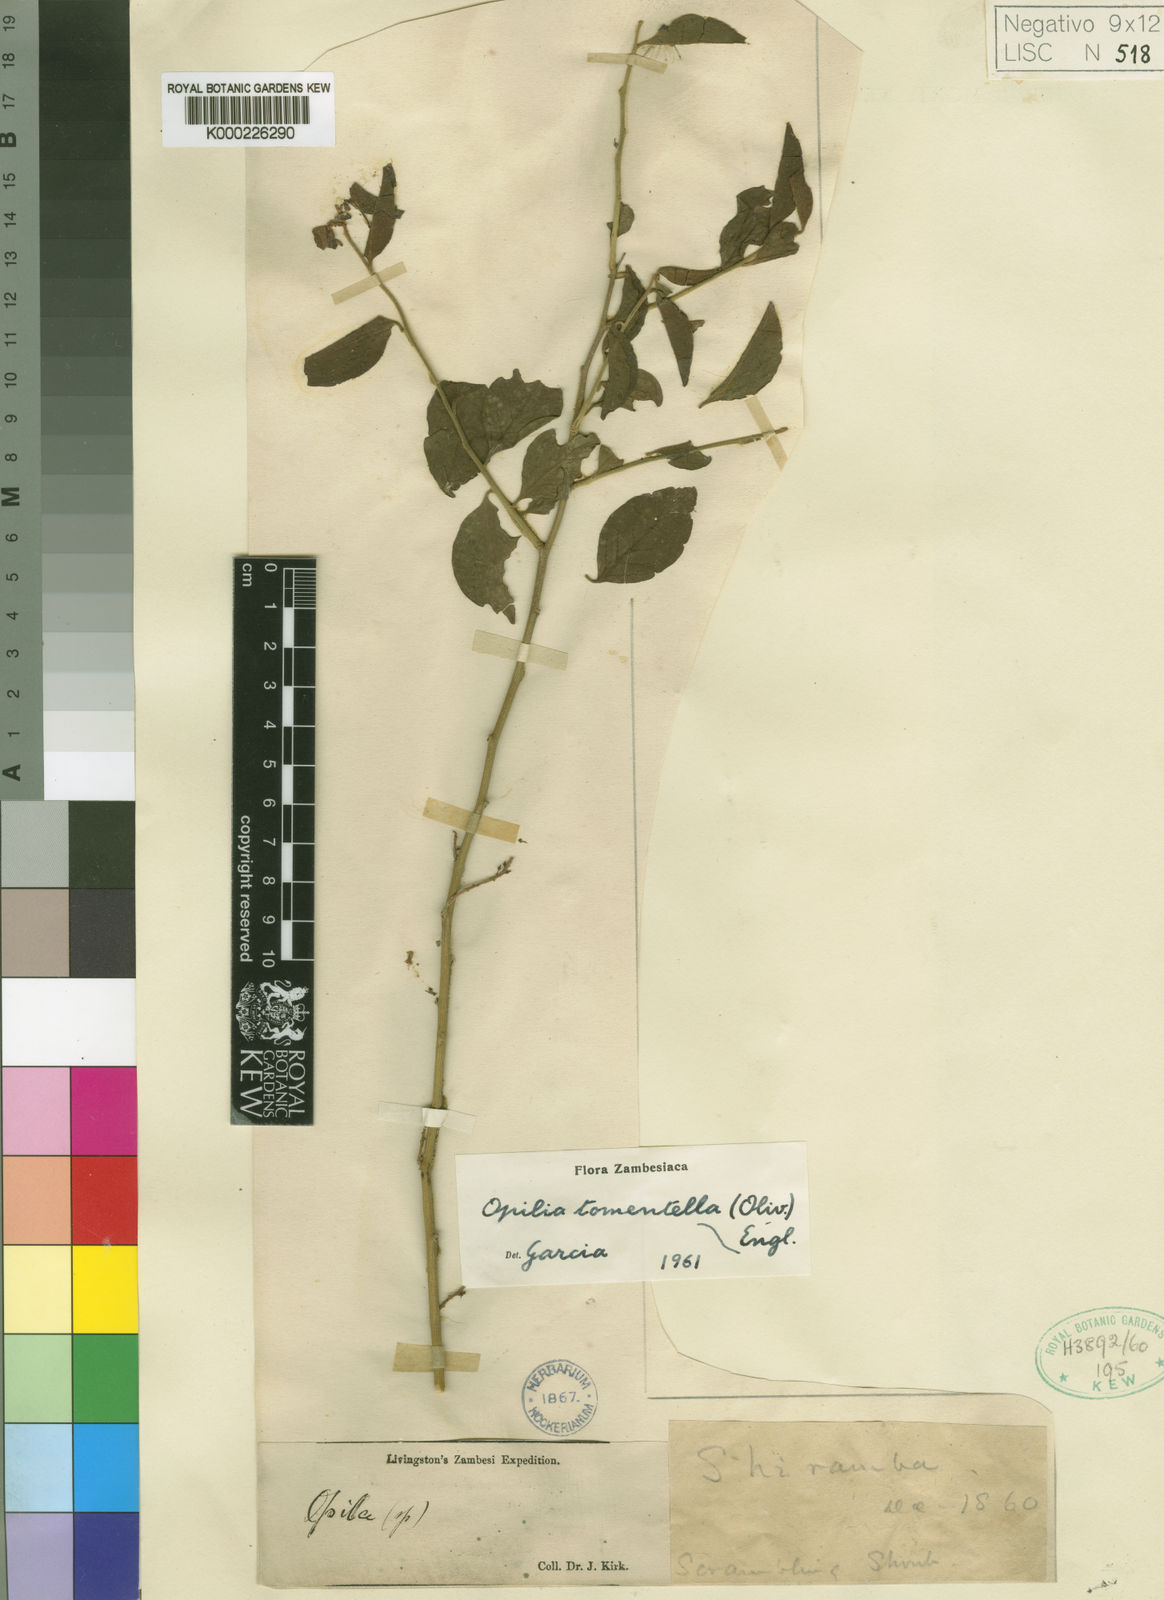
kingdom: Plantae
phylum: Tracheophyta
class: Magnoliopsida
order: Santalales
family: Opiliaceae
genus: Opilia
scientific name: Opilia amentacea
